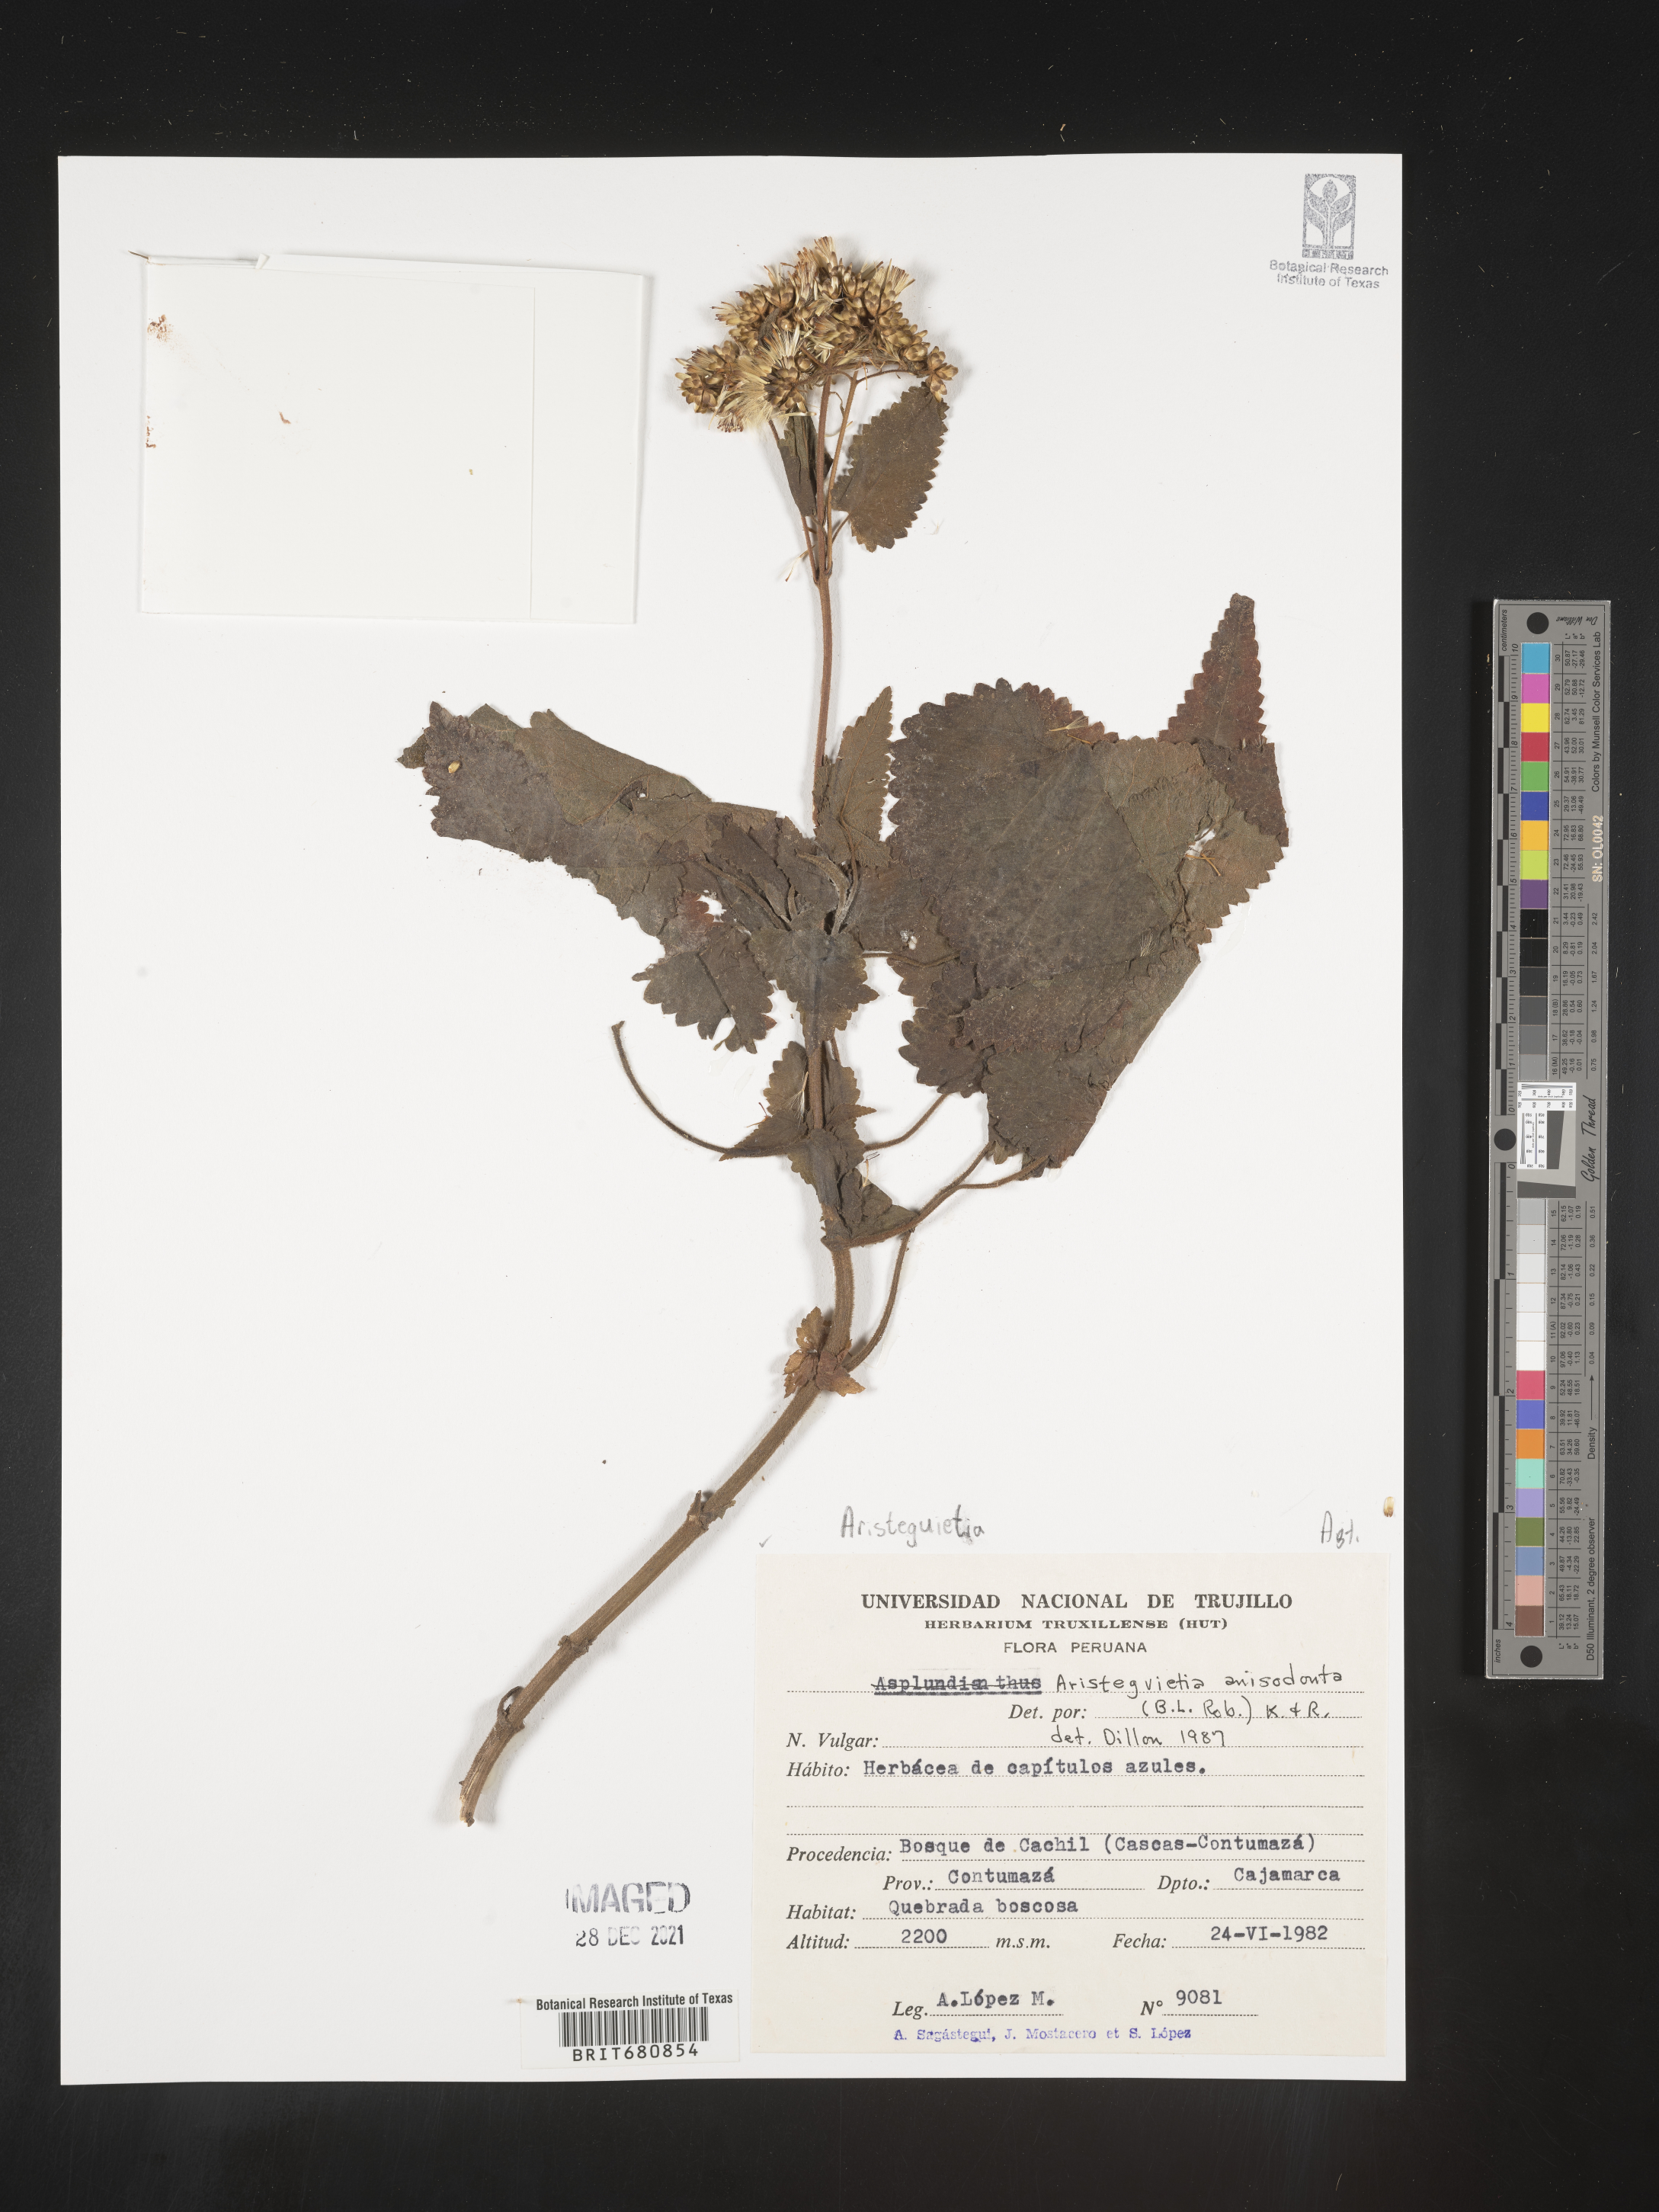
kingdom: Plantae
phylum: Tracheophyta
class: Magnoliopsida
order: Asterales
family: Asteraceae
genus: Aristeguietia
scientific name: Aristeguietia
